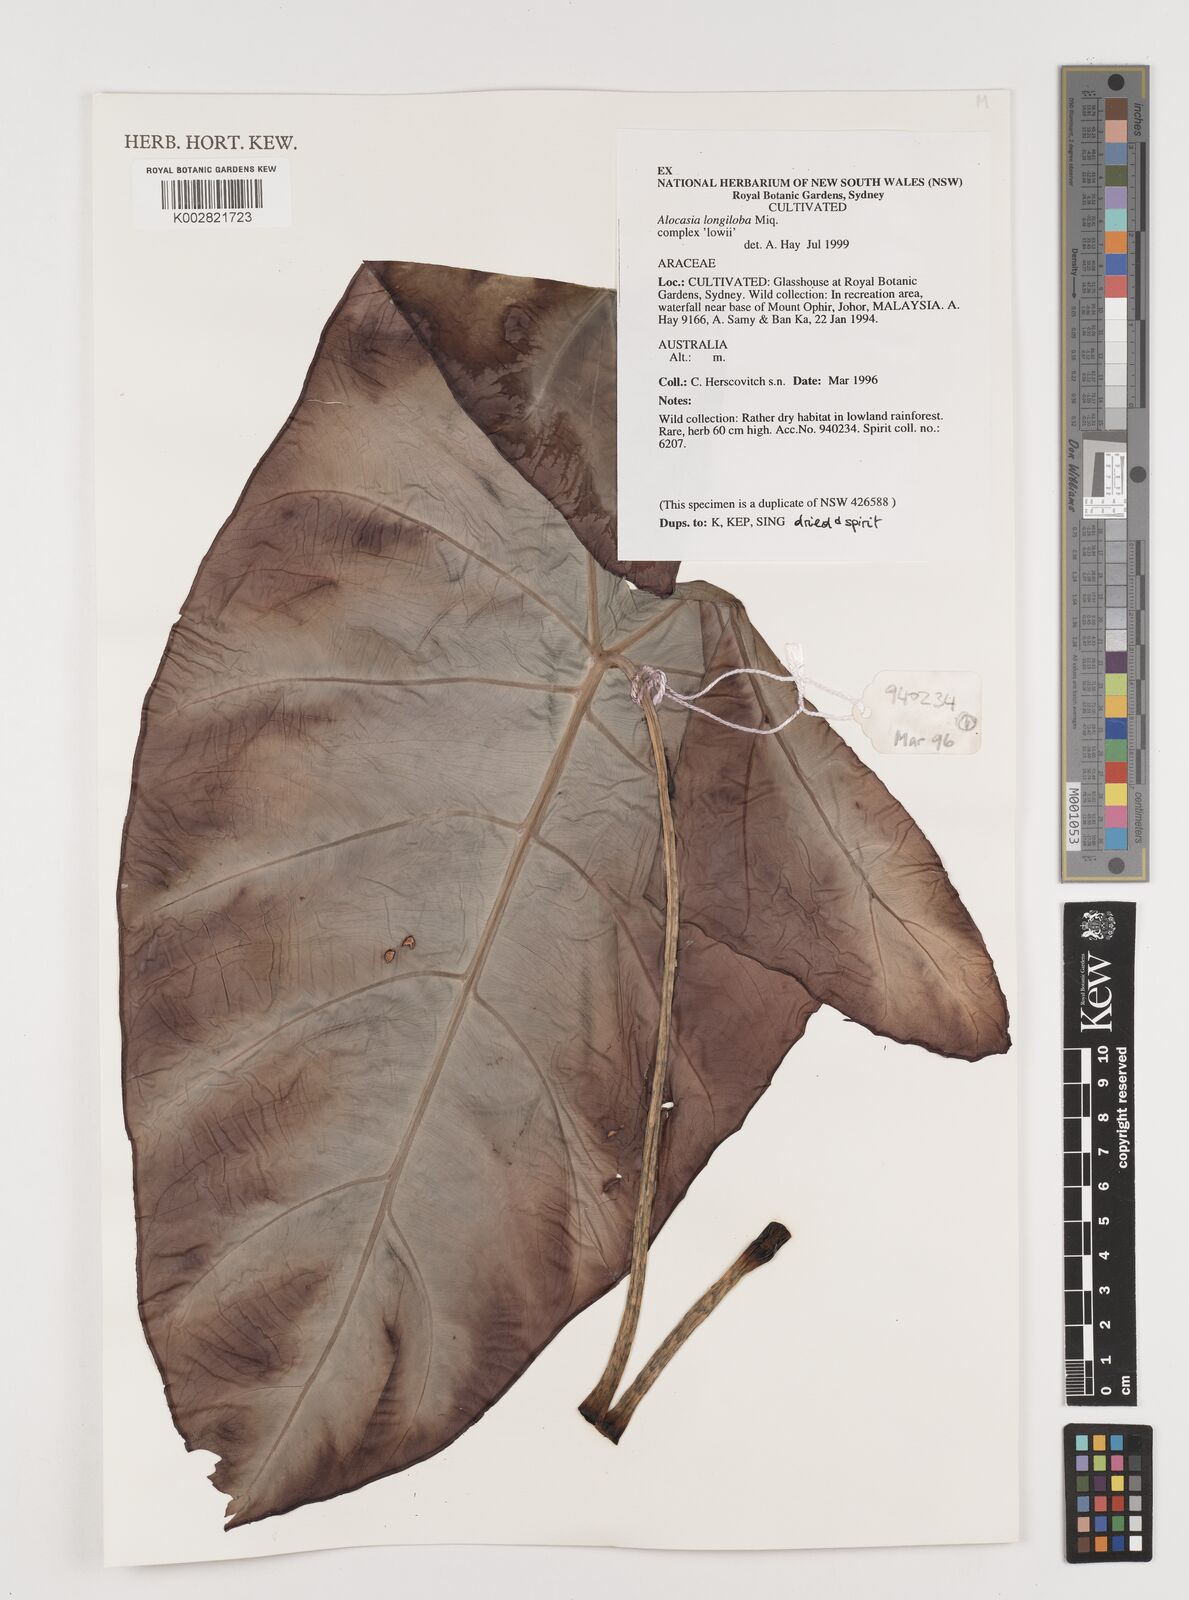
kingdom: Plantae
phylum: Tracheophyta
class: Liliopsida
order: Alismatales
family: Araceae
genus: Alocasia
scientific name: Alocasia longiloba
